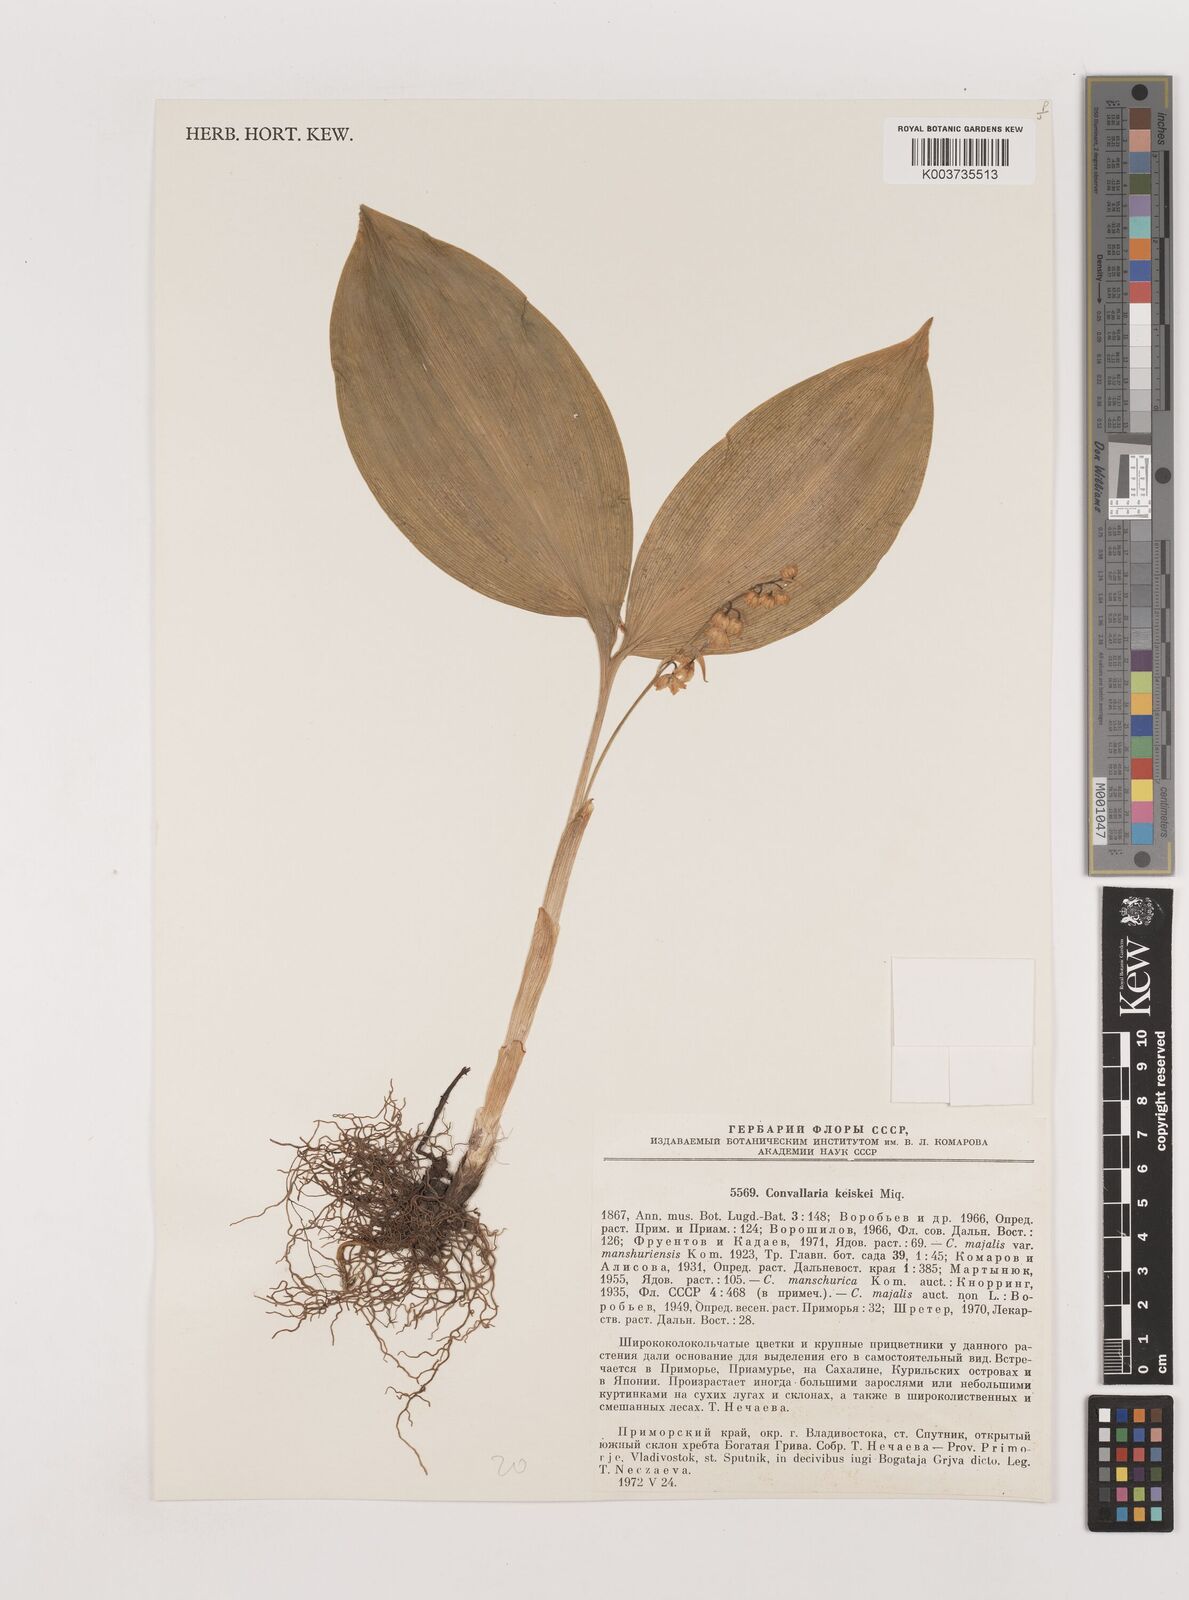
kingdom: Plantae
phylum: Tracheophyta
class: Liliopsida
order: Asparagales
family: Asparagaceae
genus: Convallaria
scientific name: Convallaria keiskei
